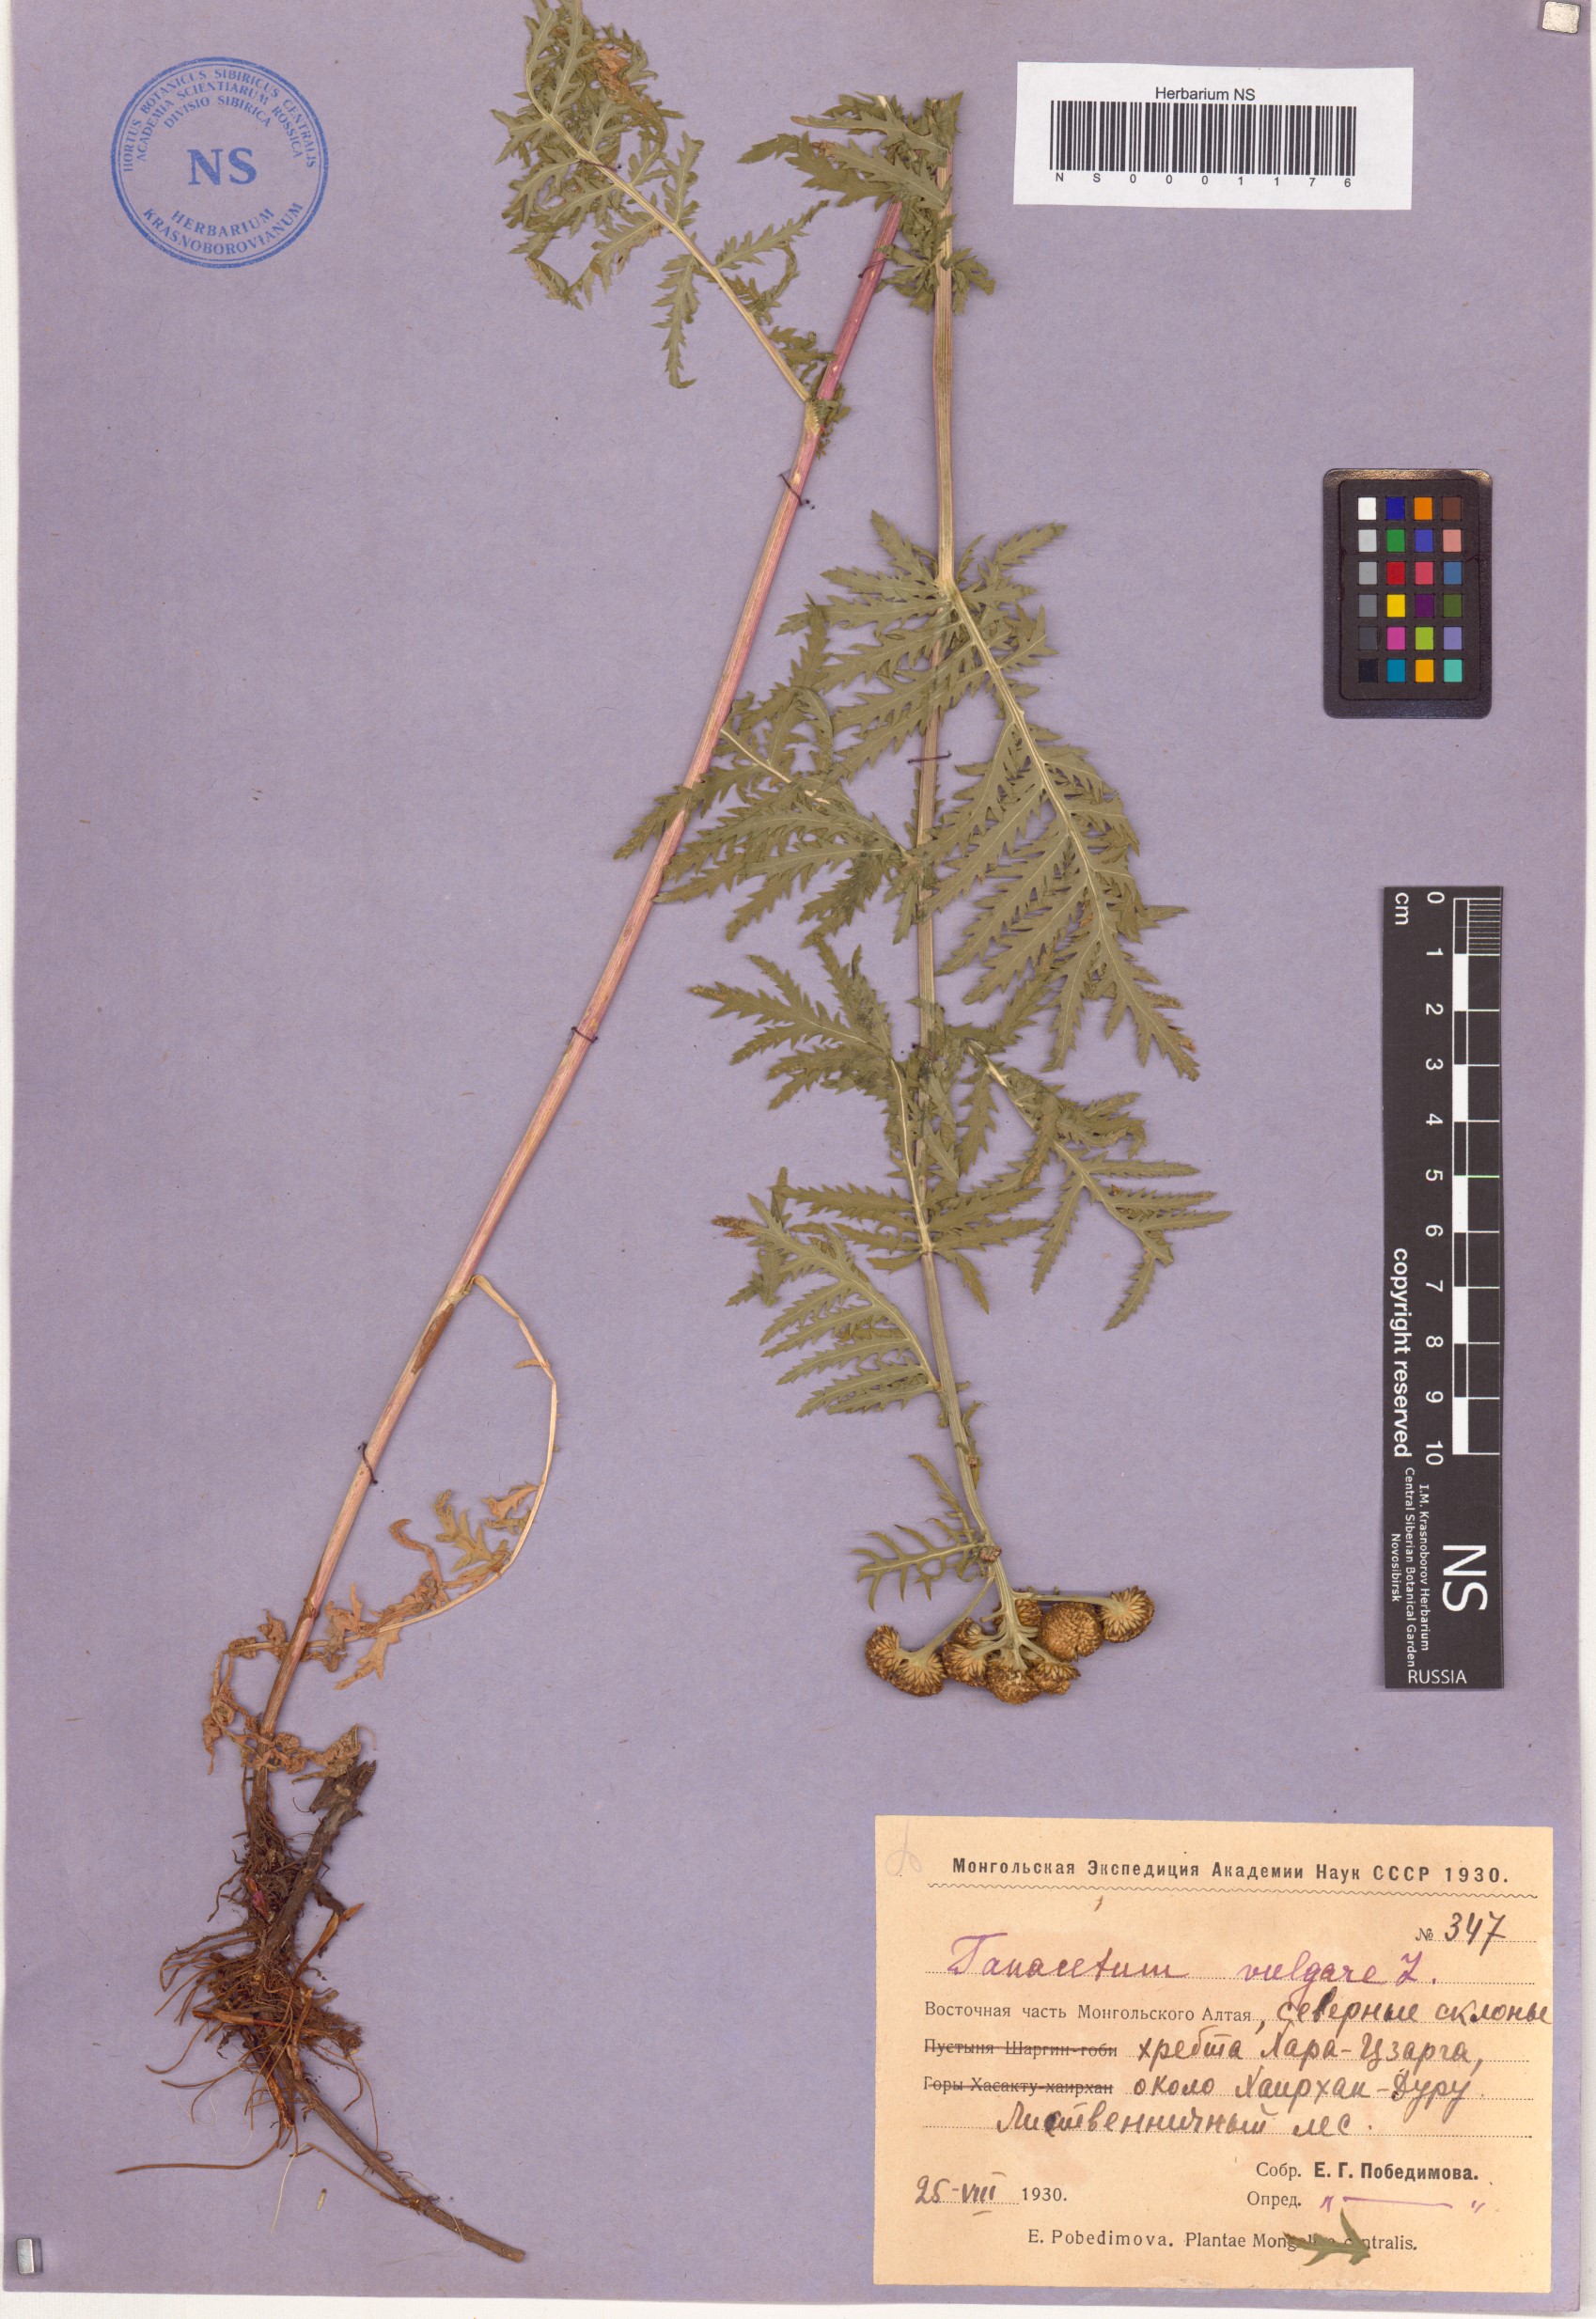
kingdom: Plantae
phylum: Tracheophyta
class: Magnoliopsida
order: Asterales
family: Asteraceae
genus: Tanacetum
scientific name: Tanacetum vulgare
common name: Common tansy
